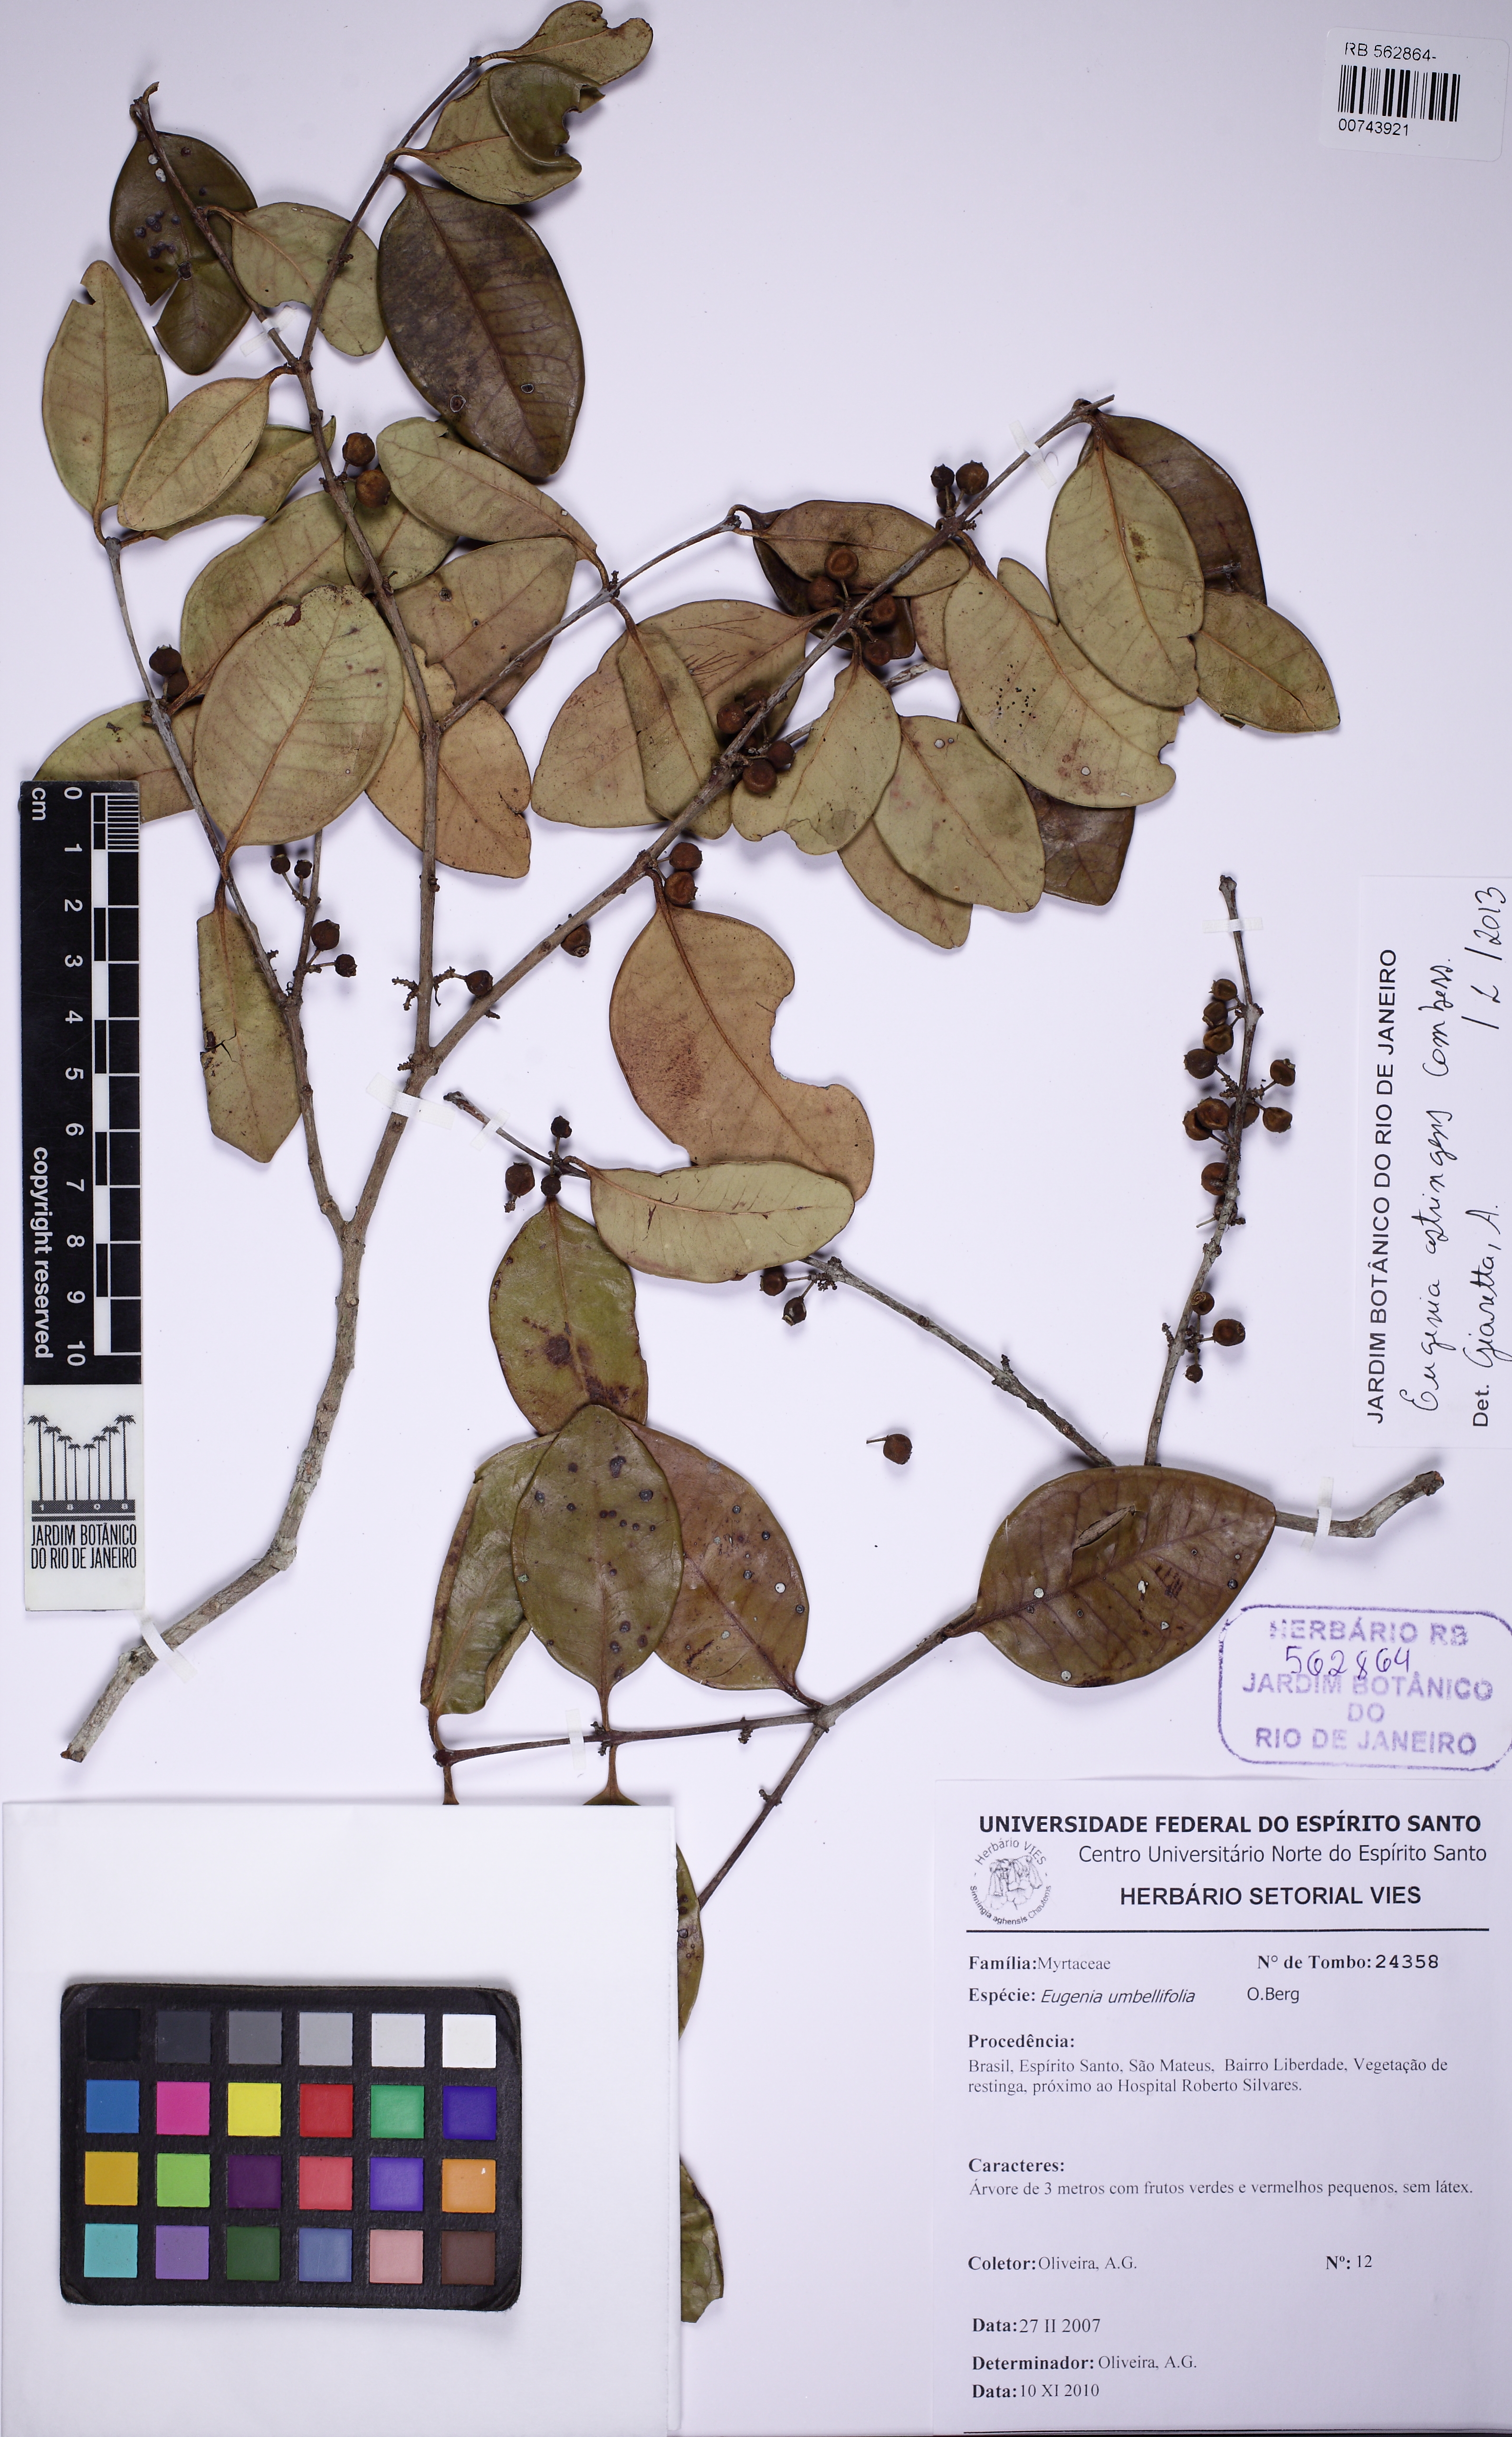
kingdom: Plantae
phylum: Tracheophyta
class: Magnoliopsida
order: Myrtales
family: Myrtaceae
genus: Eugenia
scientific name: Eugenia astringens
